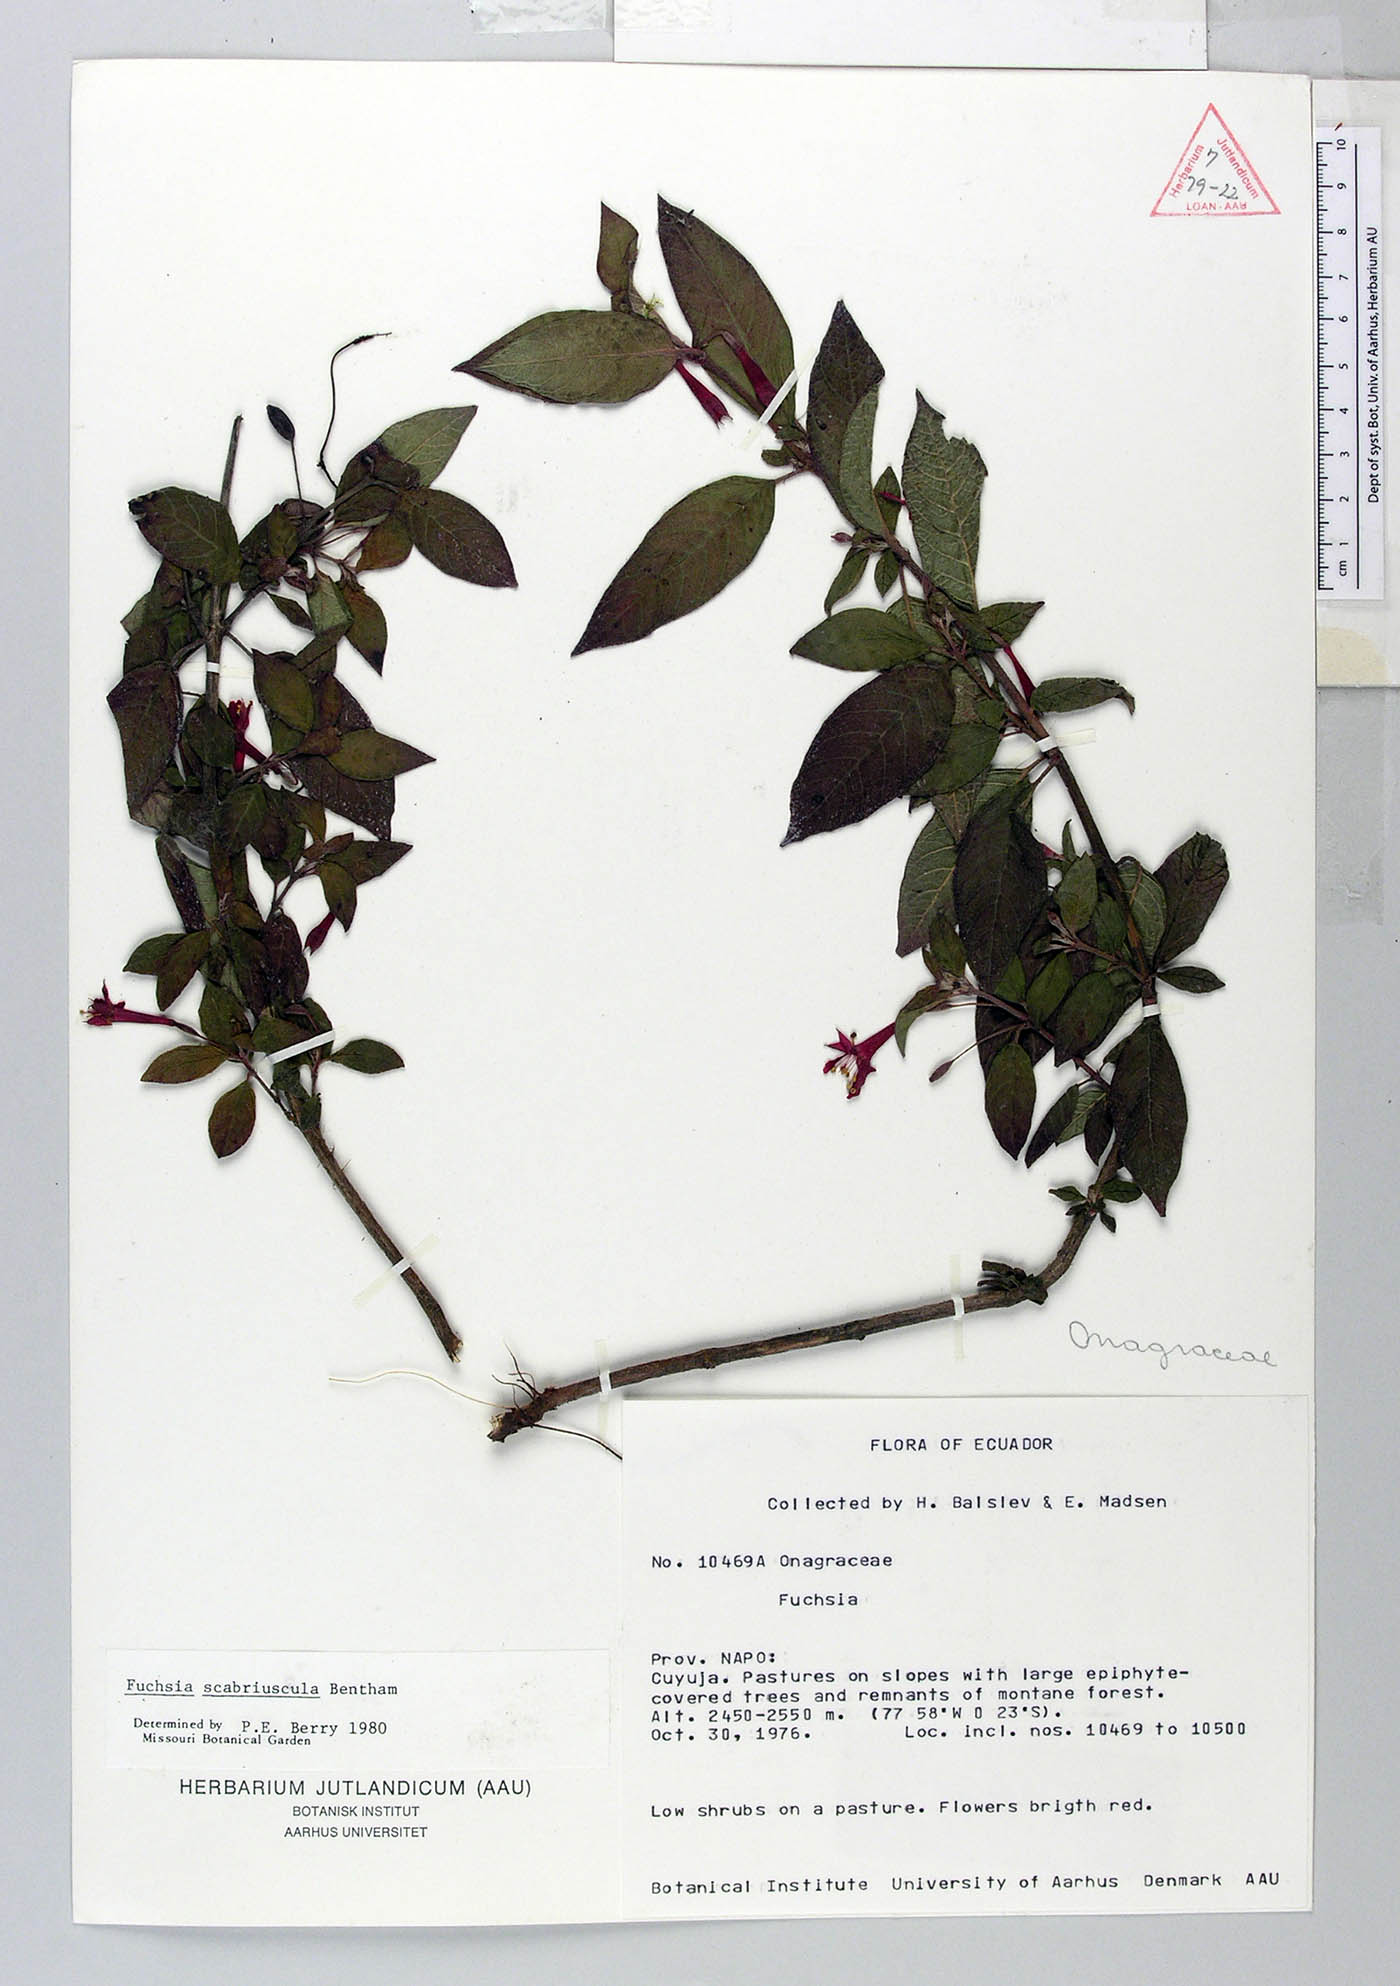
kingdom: Plantae
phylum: Tracheophyta
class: Magnoliopsida
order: Myrtales
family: Onagraceae
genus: Fuchsia
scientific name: Fuchsia scabriuscula
